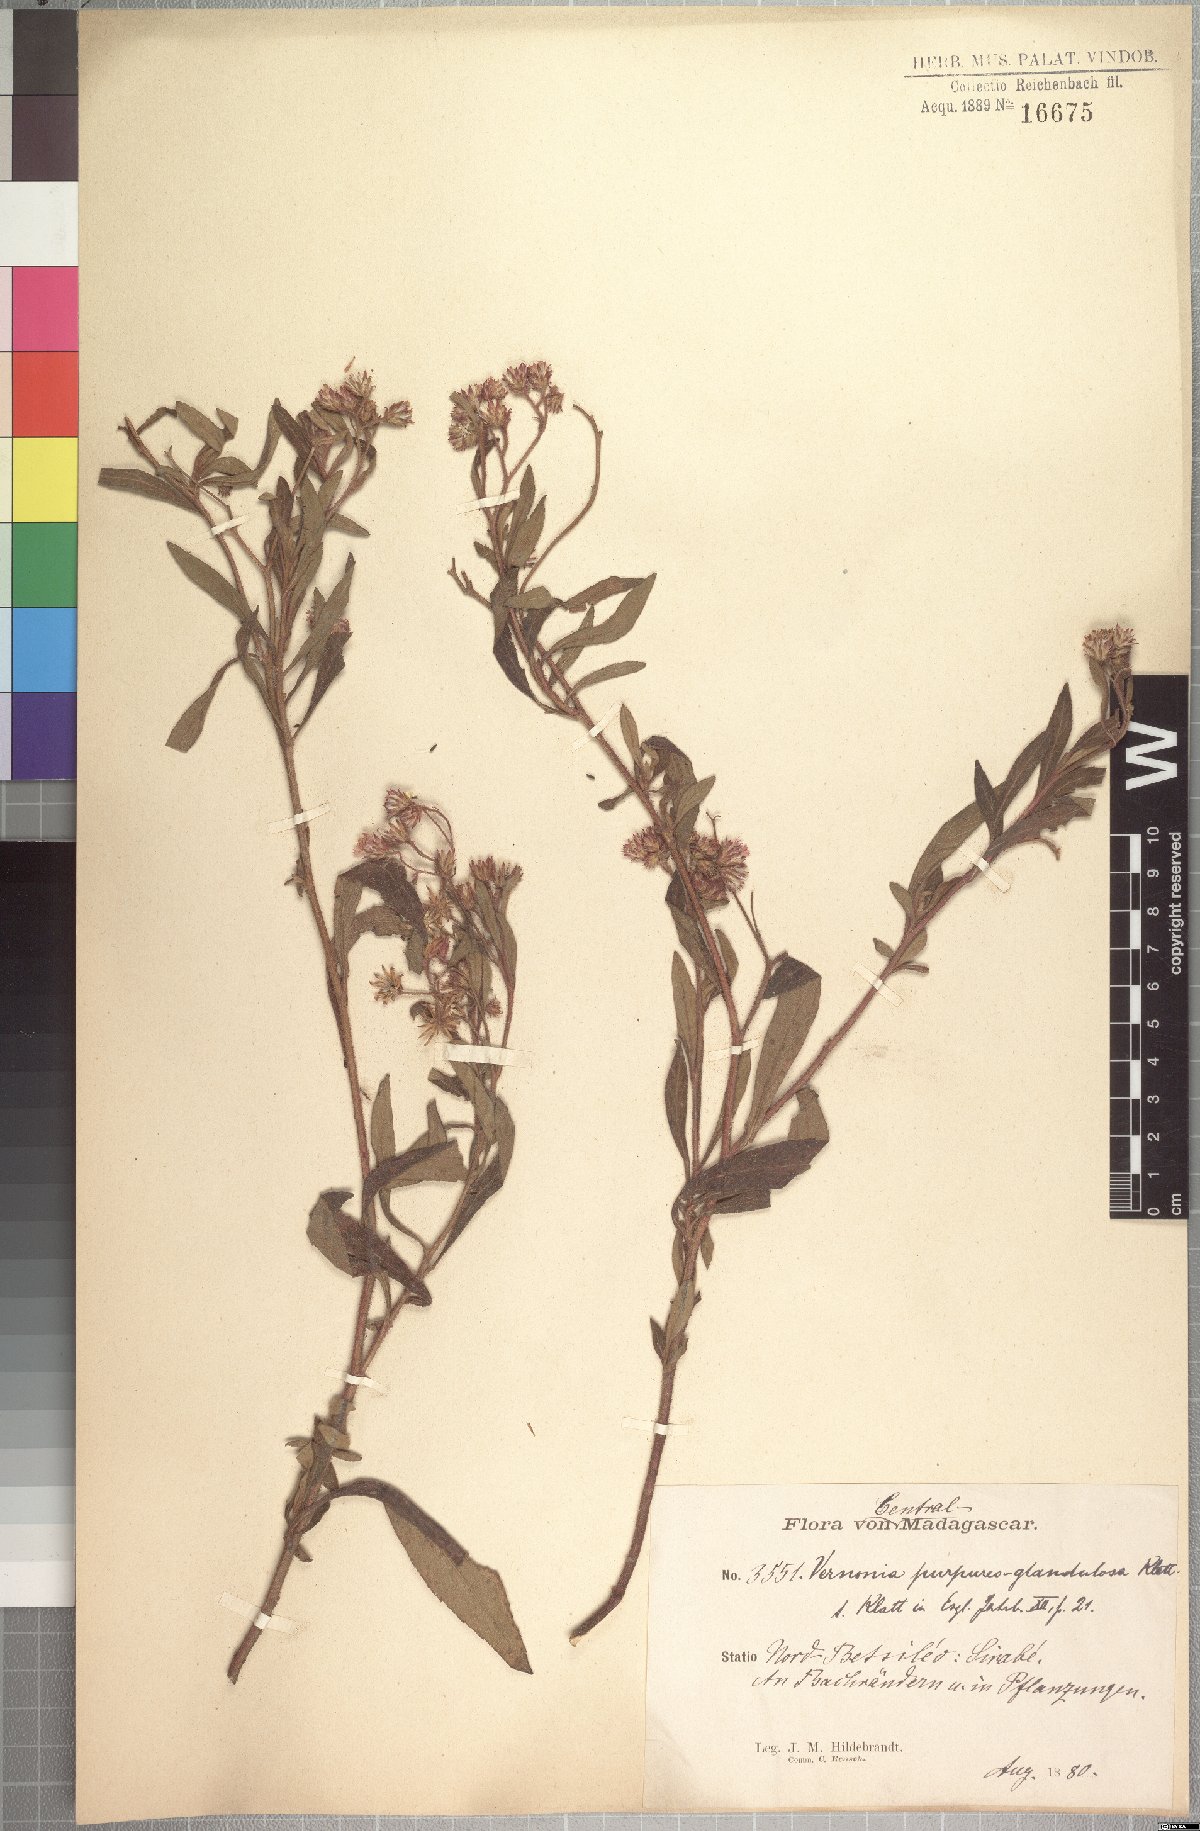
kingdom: Plantae
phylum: Tracheophyta
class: Magnoliopsida
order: Asterales
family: Asteraceae
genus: Bechium
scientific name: Bechium rhodolepis
